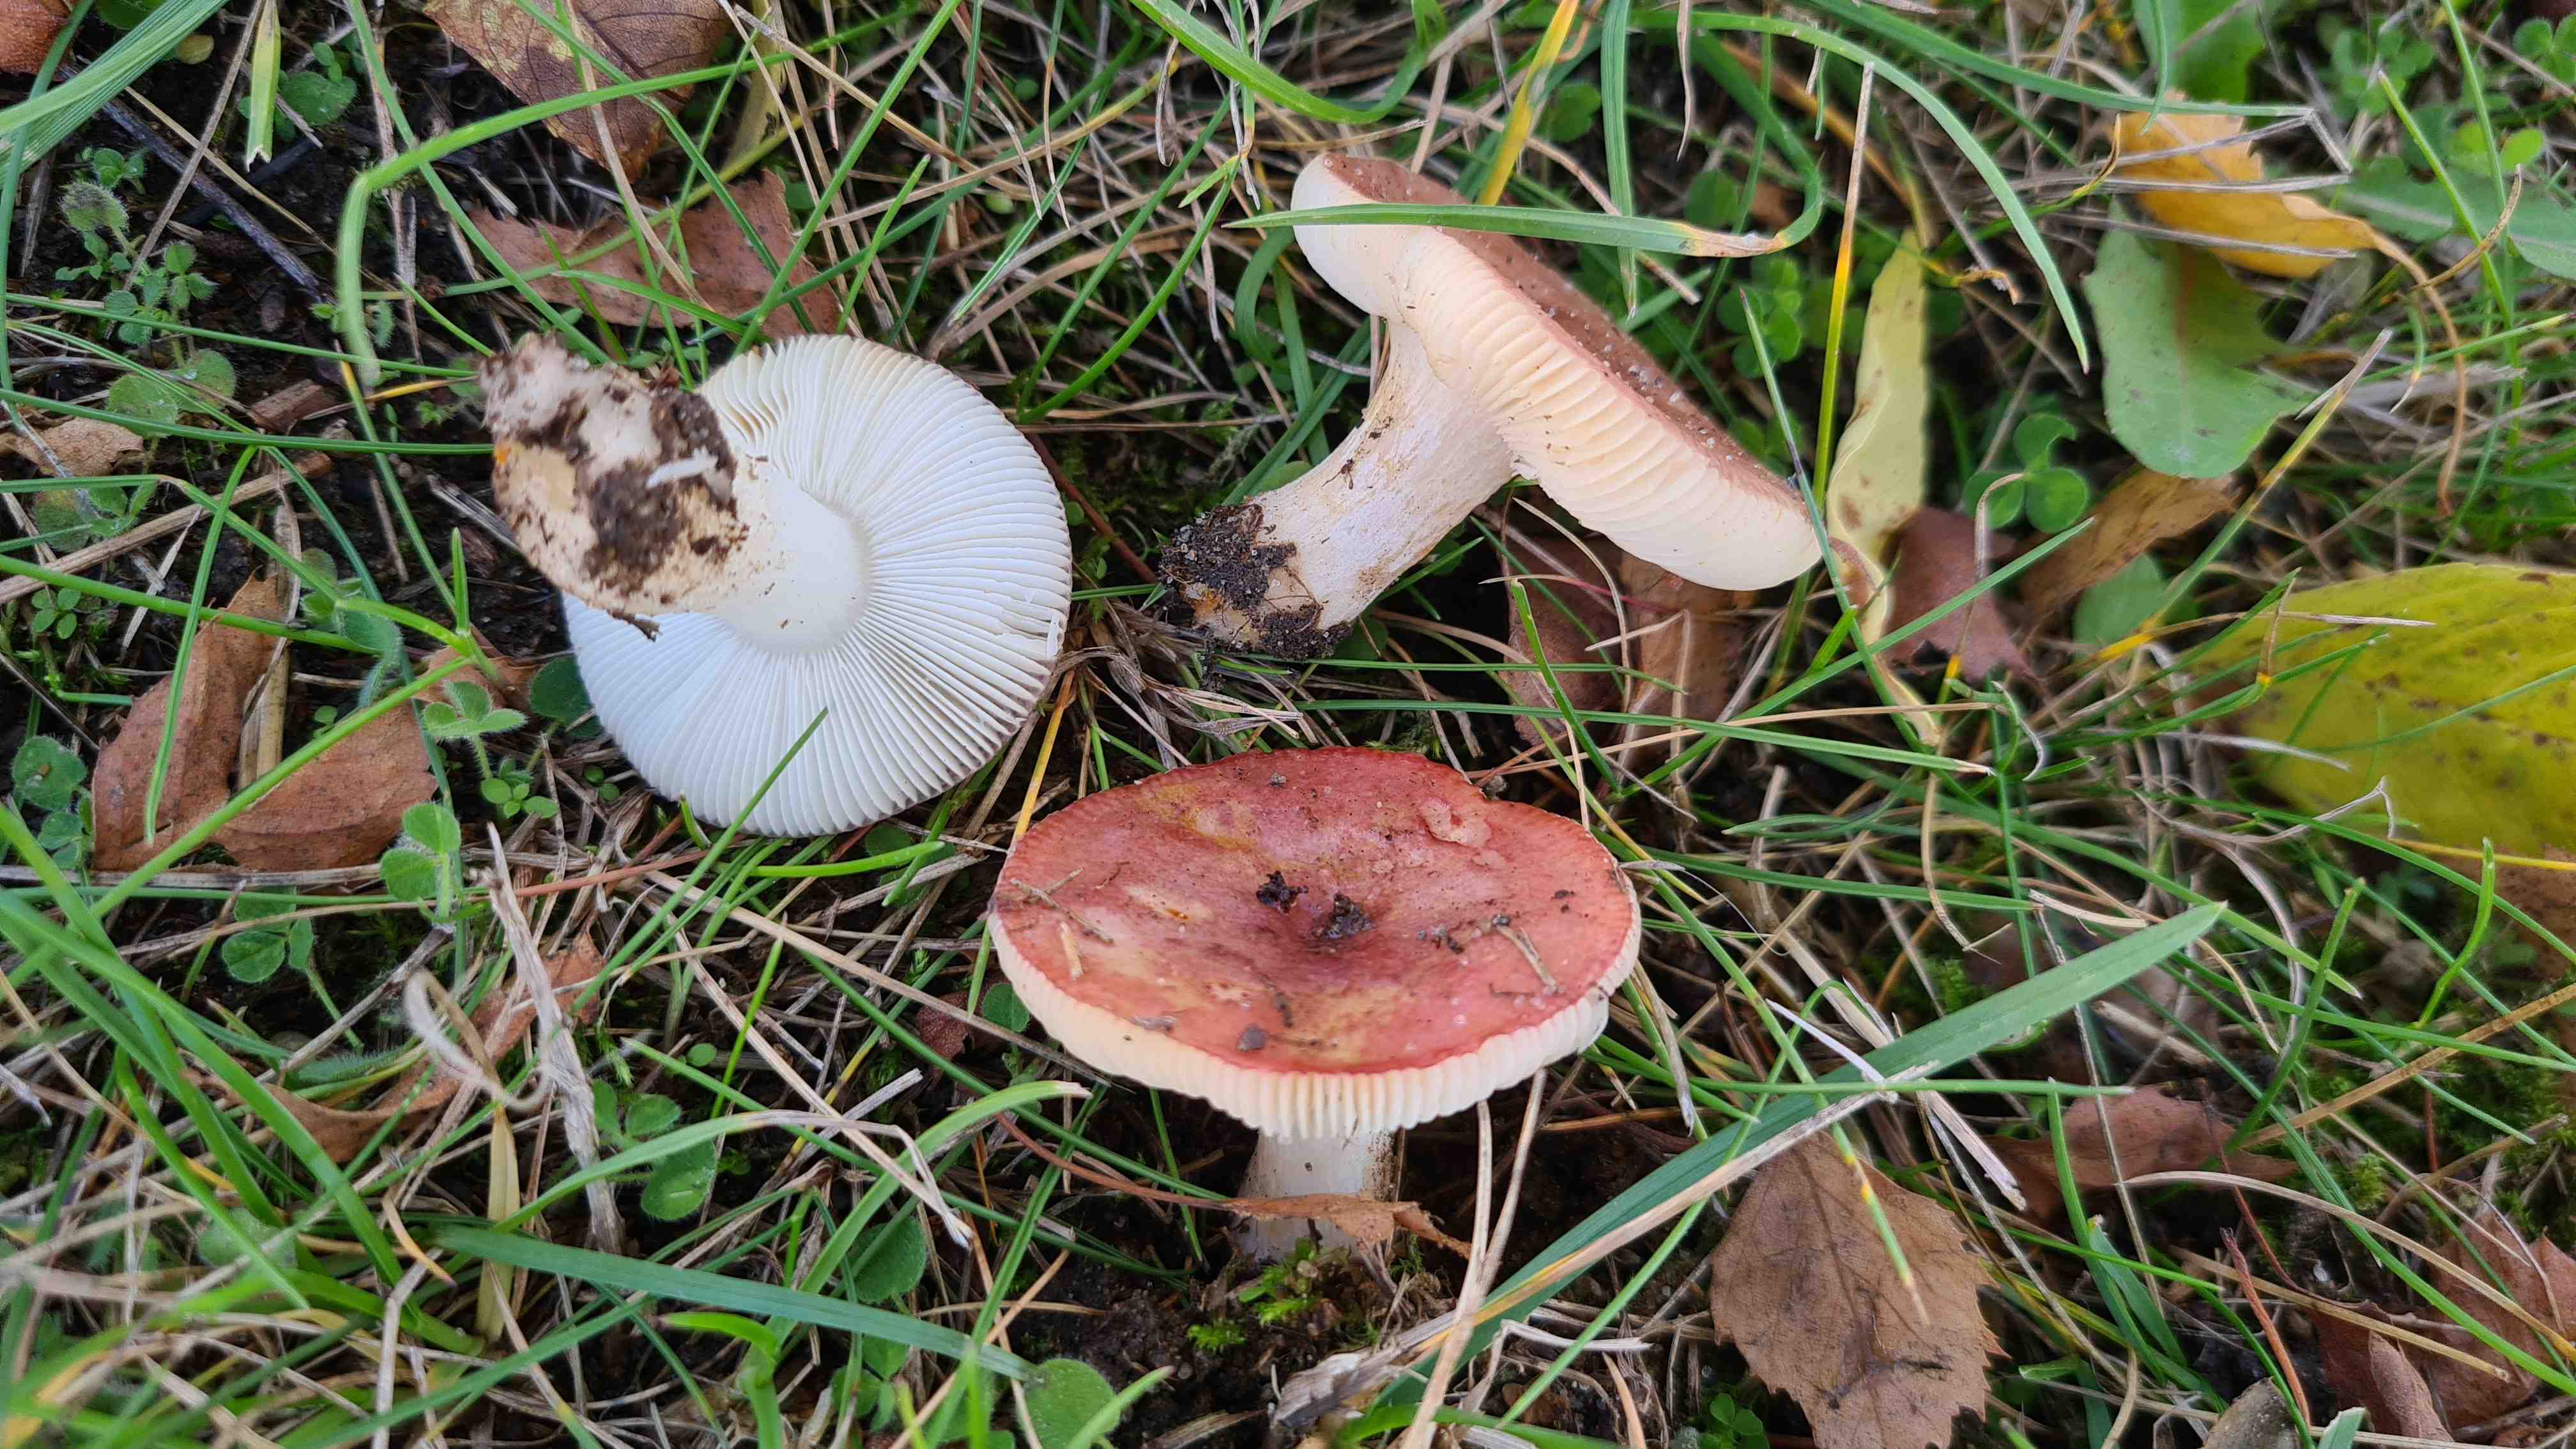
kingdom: Fungi
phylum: Basidiomycota
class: Agaricomycetes
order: Russulales
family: Russulaceae
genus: Russula
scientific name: Russula nitida
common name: året skørhat
